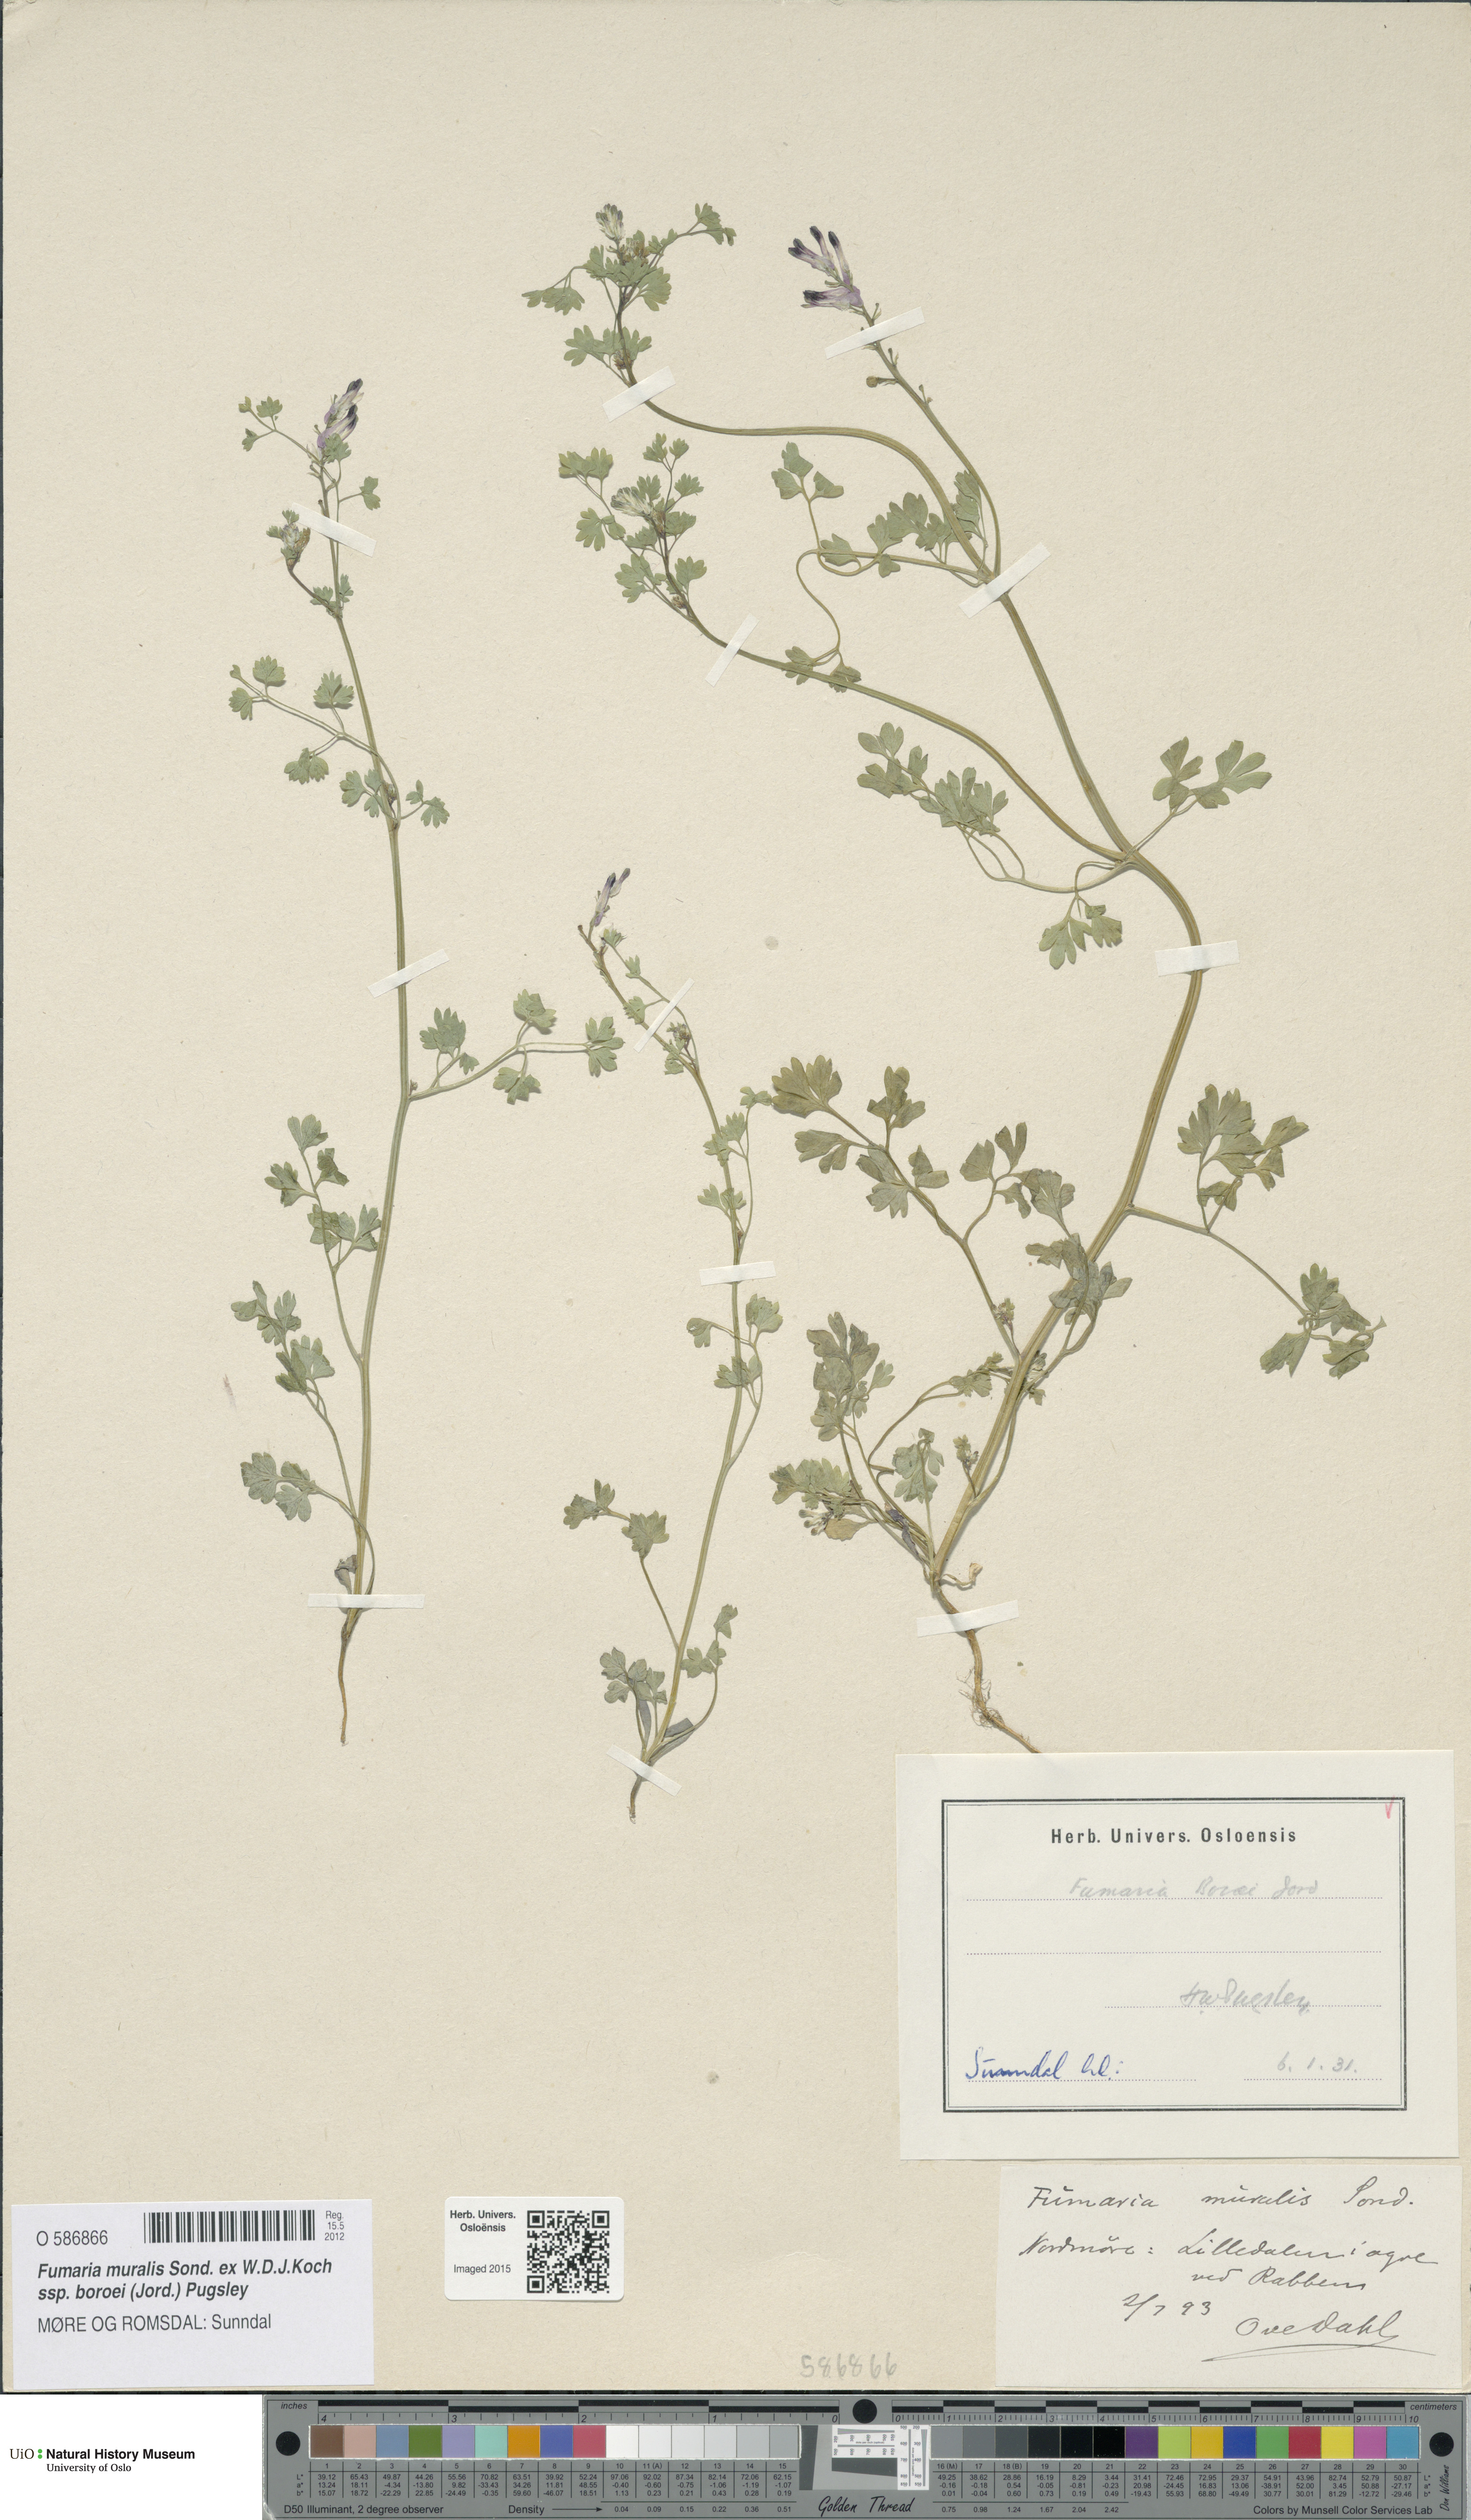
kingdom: Plantae
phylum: Tracheophyta
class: Magnoliopsida
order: Ranunculales
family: Papaveraceae
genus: Fumaria
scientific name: Fumaria muralis
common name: Common ramping-fumitory
